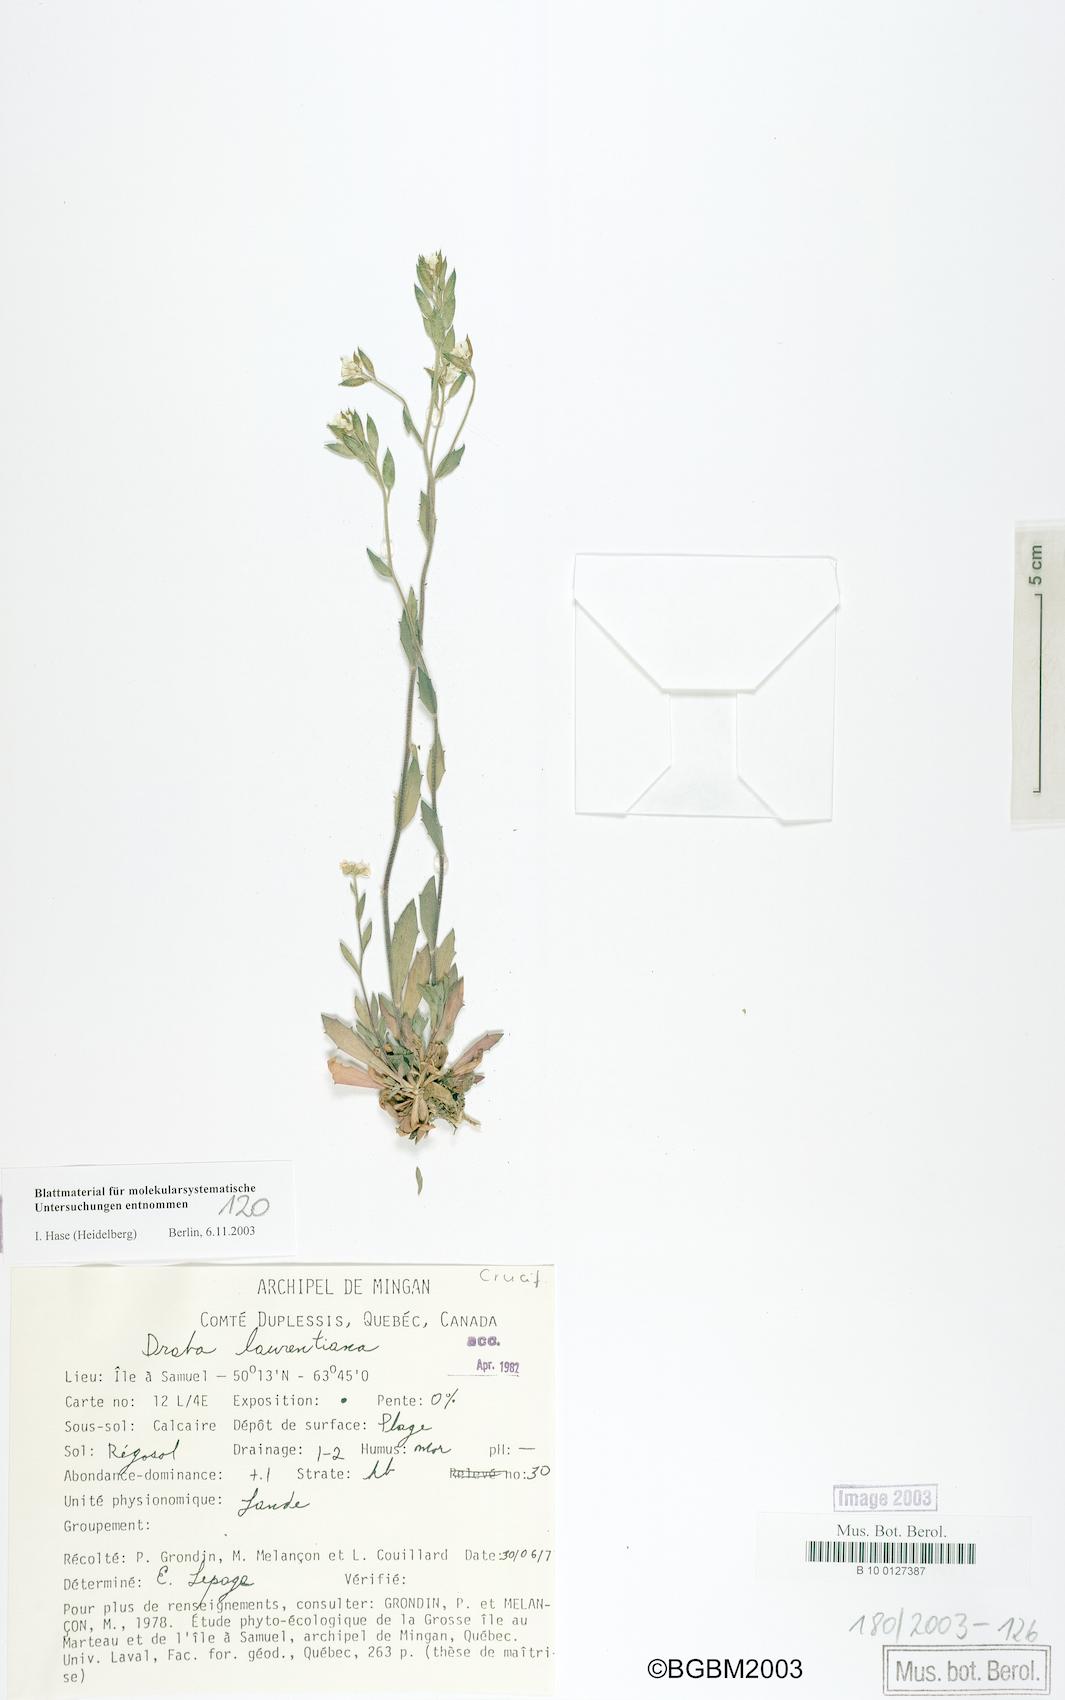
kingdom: Plantae
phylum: Tracheophyta
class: Magnoliopsida
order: Brassicales
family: Brassicaceae
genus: Draba
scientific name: Draba glabella
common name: Glaucous draba
